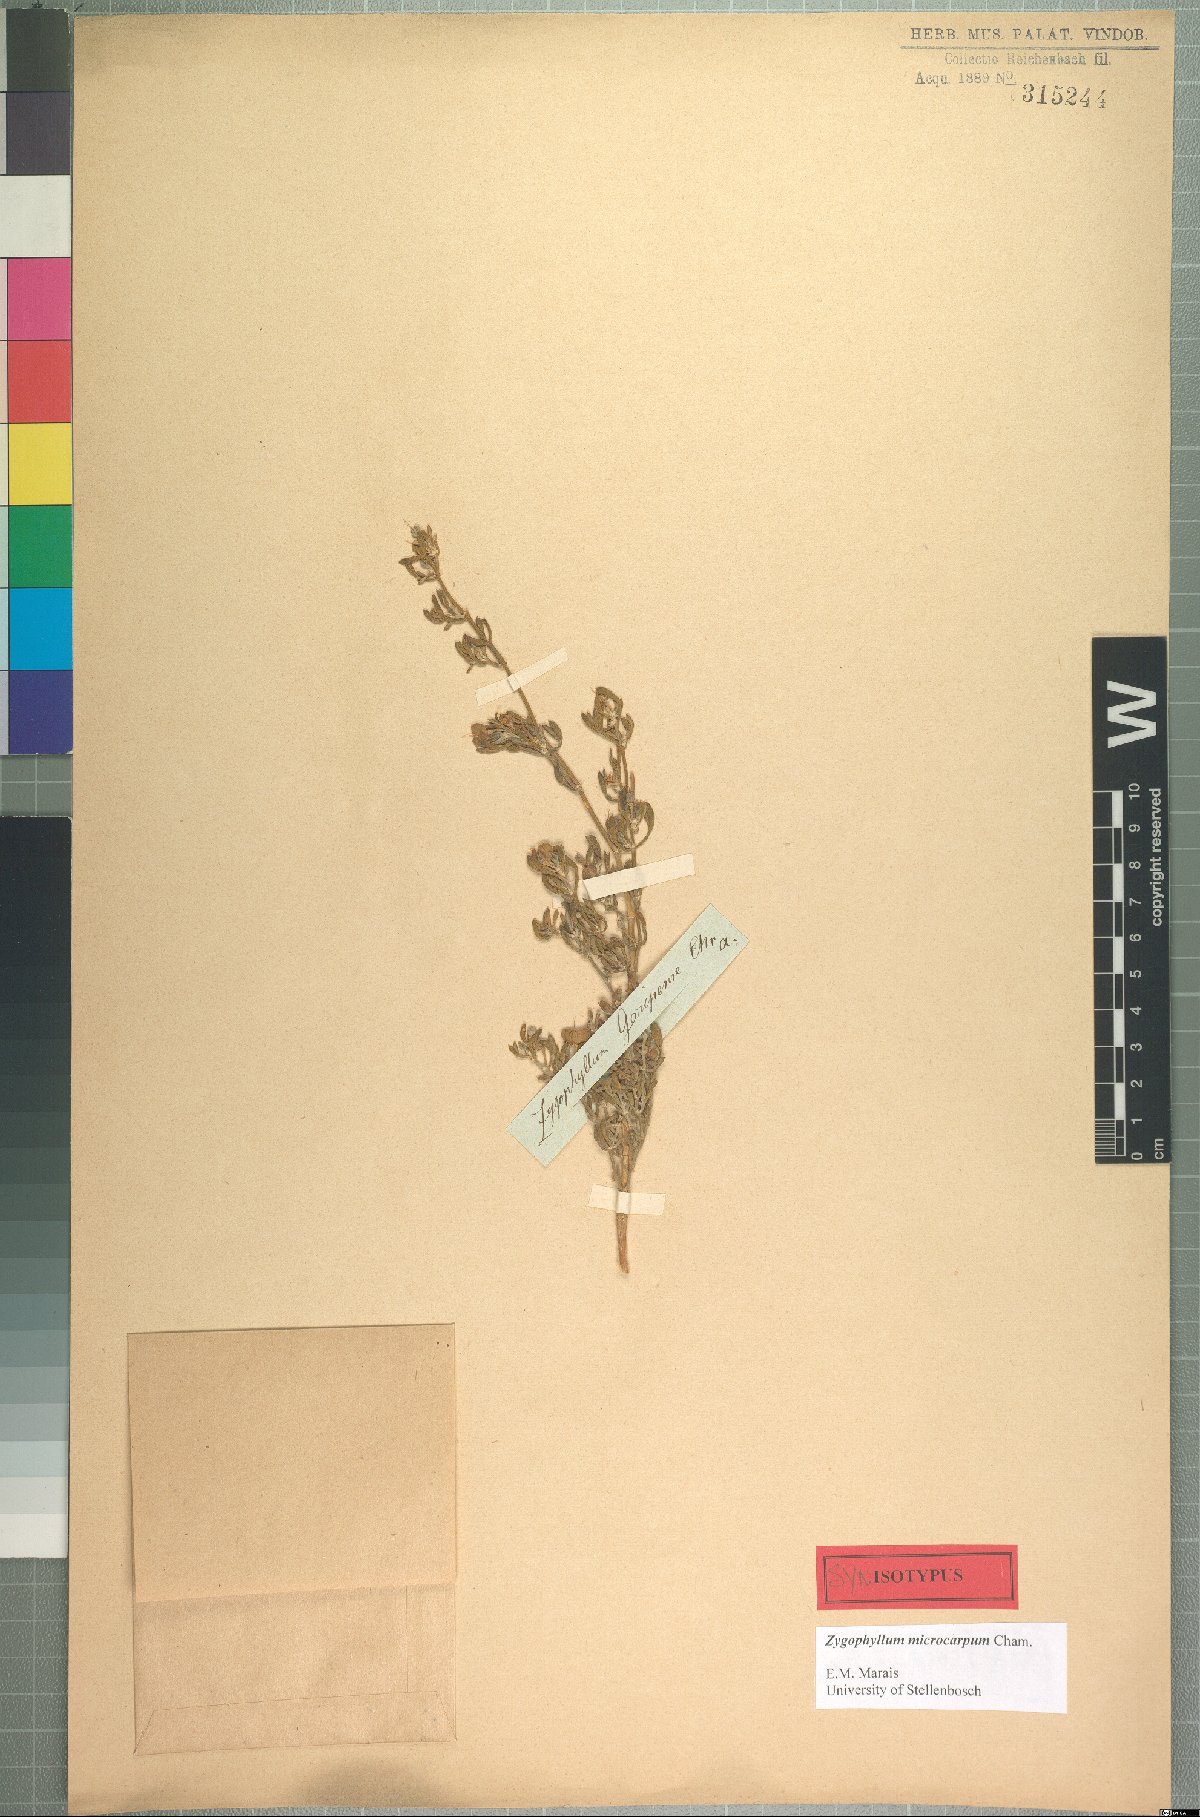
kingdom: Plantae
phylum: Tracheophyta
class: Magnoliopsida
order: Zygophyllales
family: Zygophyllaceae
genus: Tetraena
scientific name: Tetraena microcarpa
